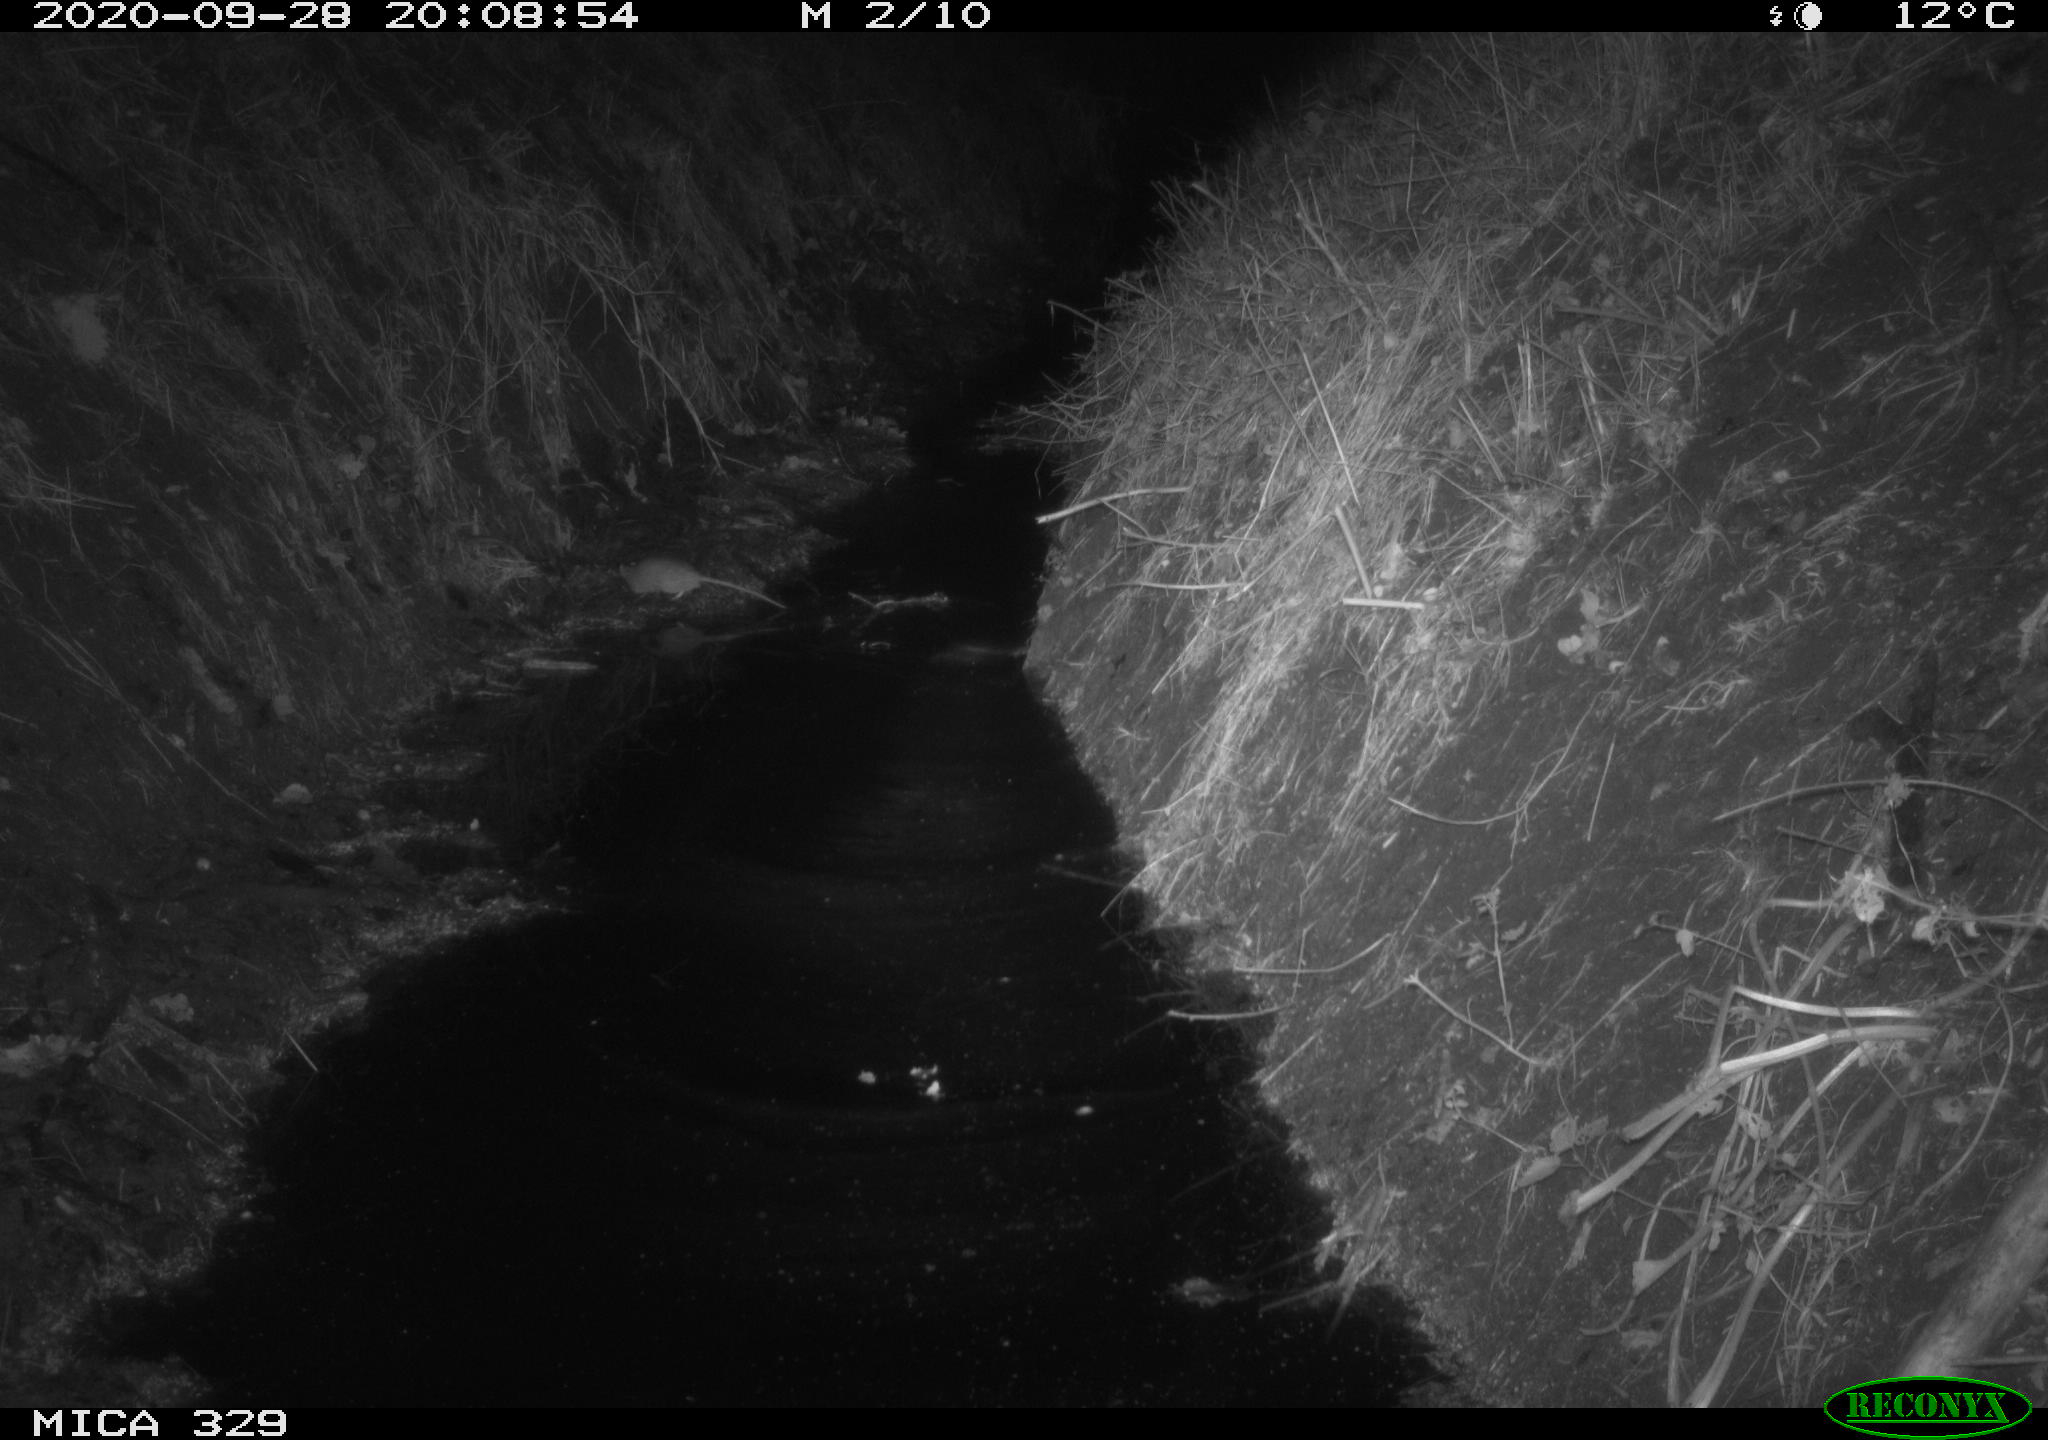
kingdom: Animalia
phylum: Chordata
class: Mammalia
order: Rodentia
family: Muridae
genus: Rattus
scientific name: Rattus norvegicus
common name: Brown rat
